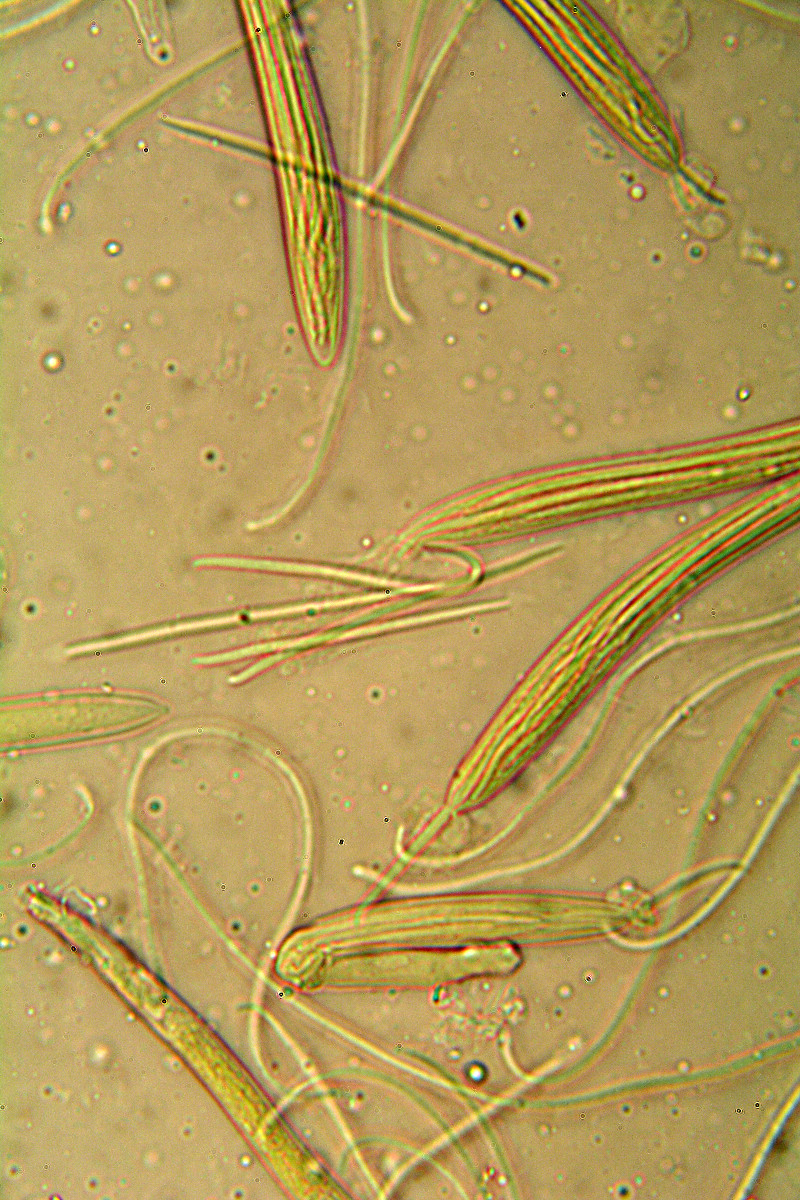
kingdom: Fungi
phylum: Ascomycota
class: Leotiomycetes
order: Rhytismatales
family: Rhytismataceae
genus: Lophodermium
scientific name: Lophodermium
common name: fureplet
